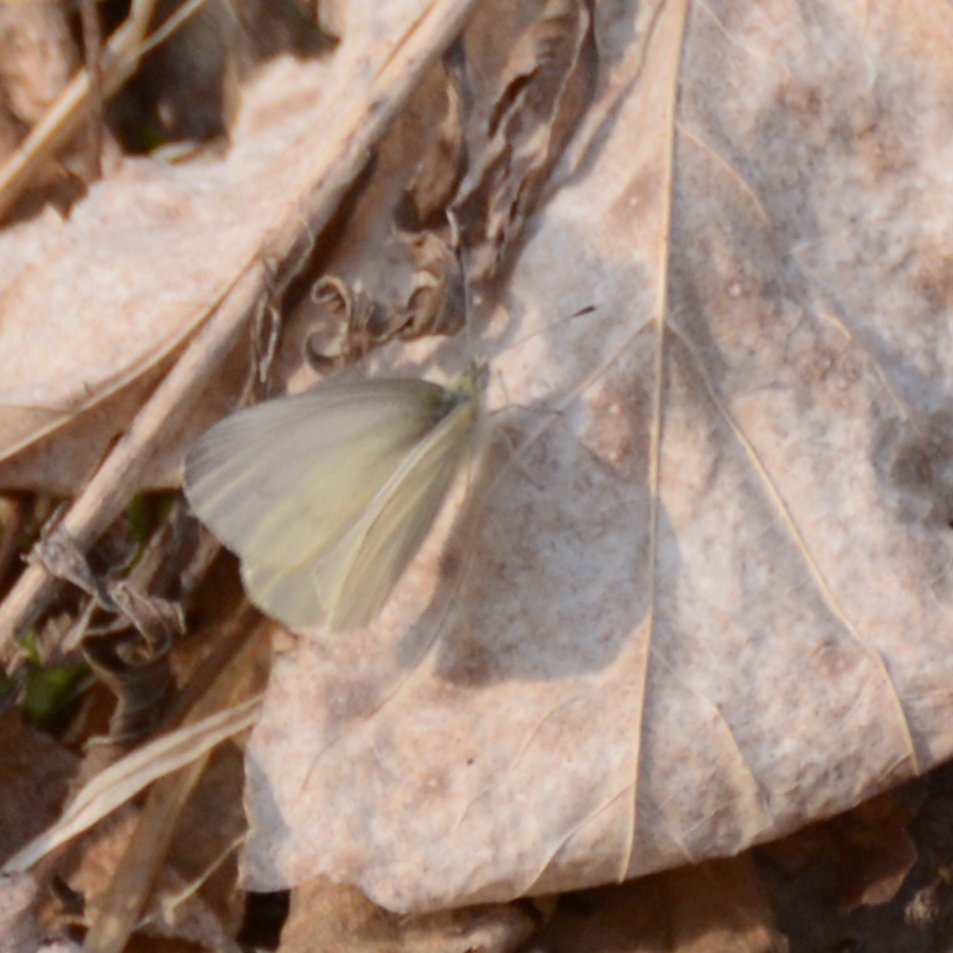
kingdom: Animalia
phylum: Arthropoda
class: Insecta
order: Lepidoptera
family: Pieridae
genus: Pieris
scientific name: Pieris virginiensis
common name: West Virginia White
